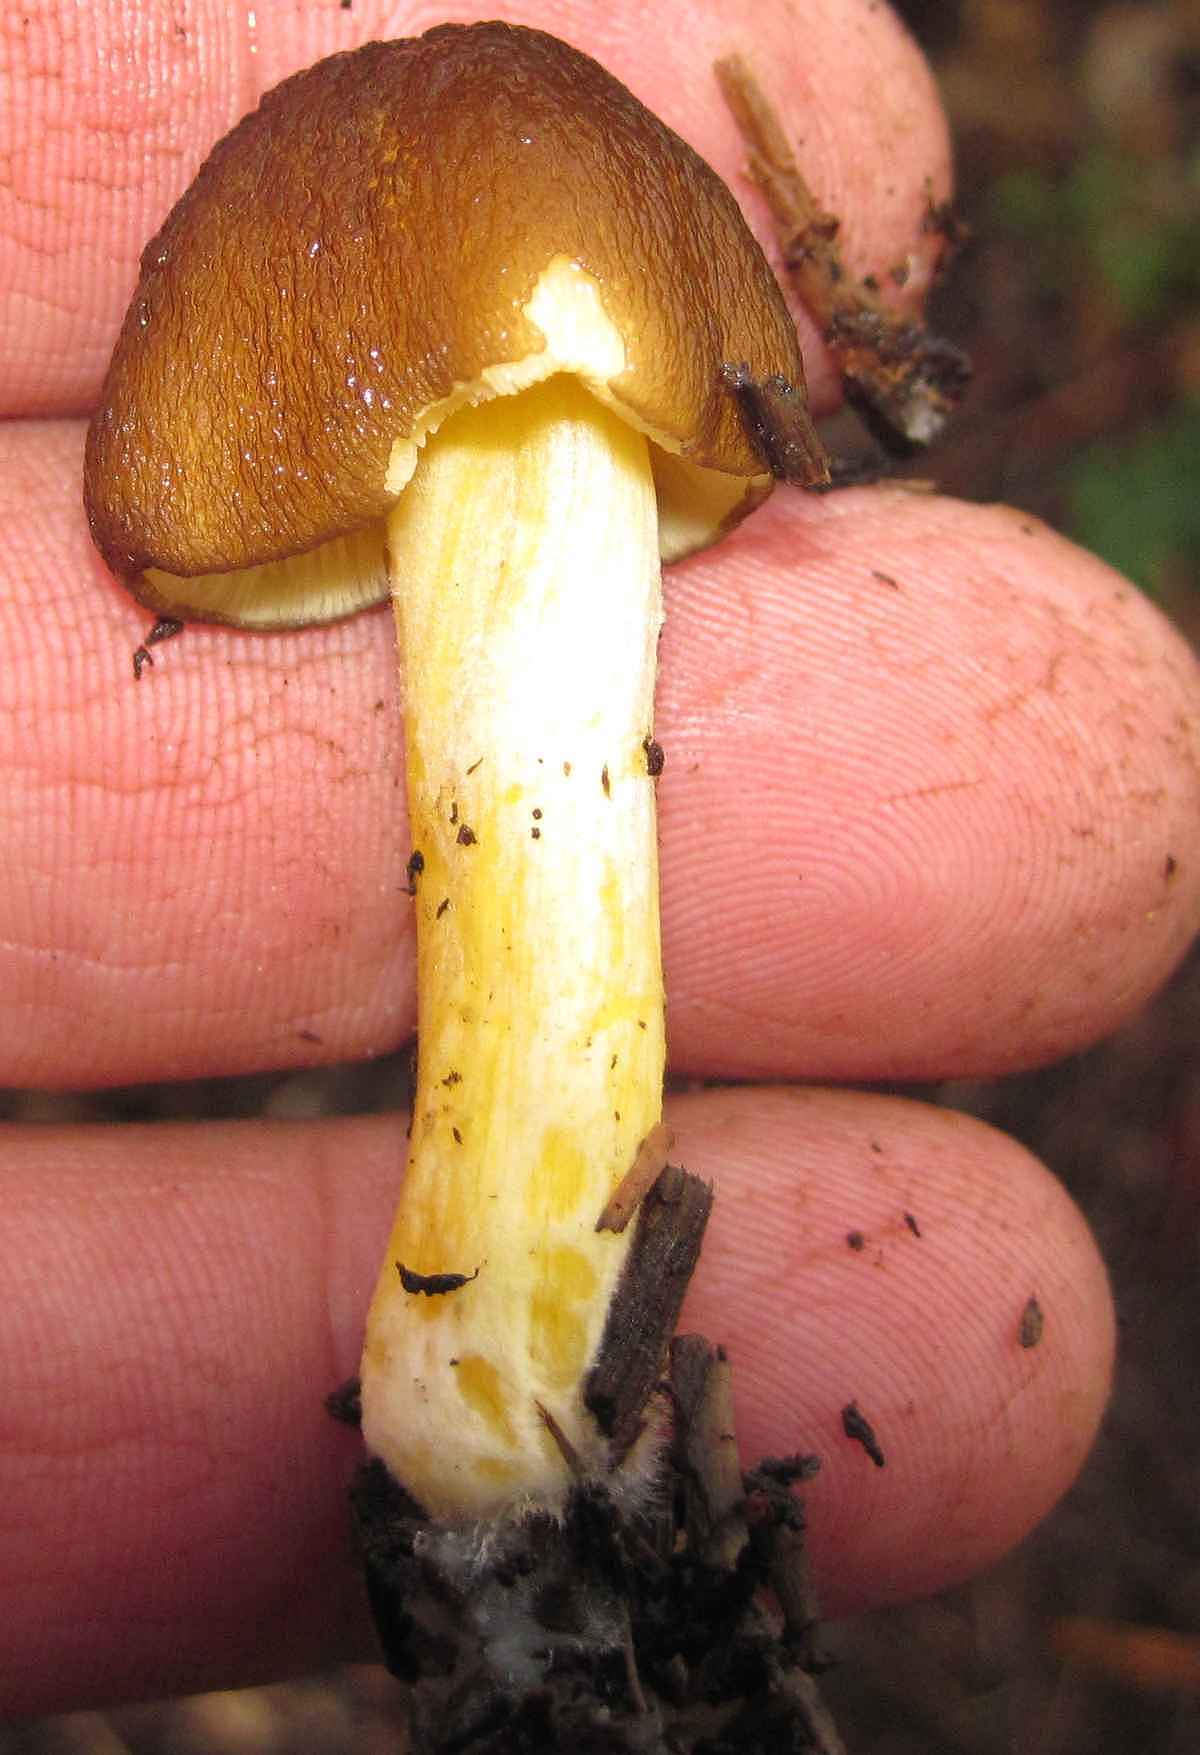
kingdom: Fungi
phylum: Basidiomycota
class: Agaricomycetes
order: Agaricales
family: Pluteaceae
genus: Pluteus
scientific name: Pluteus romellii
